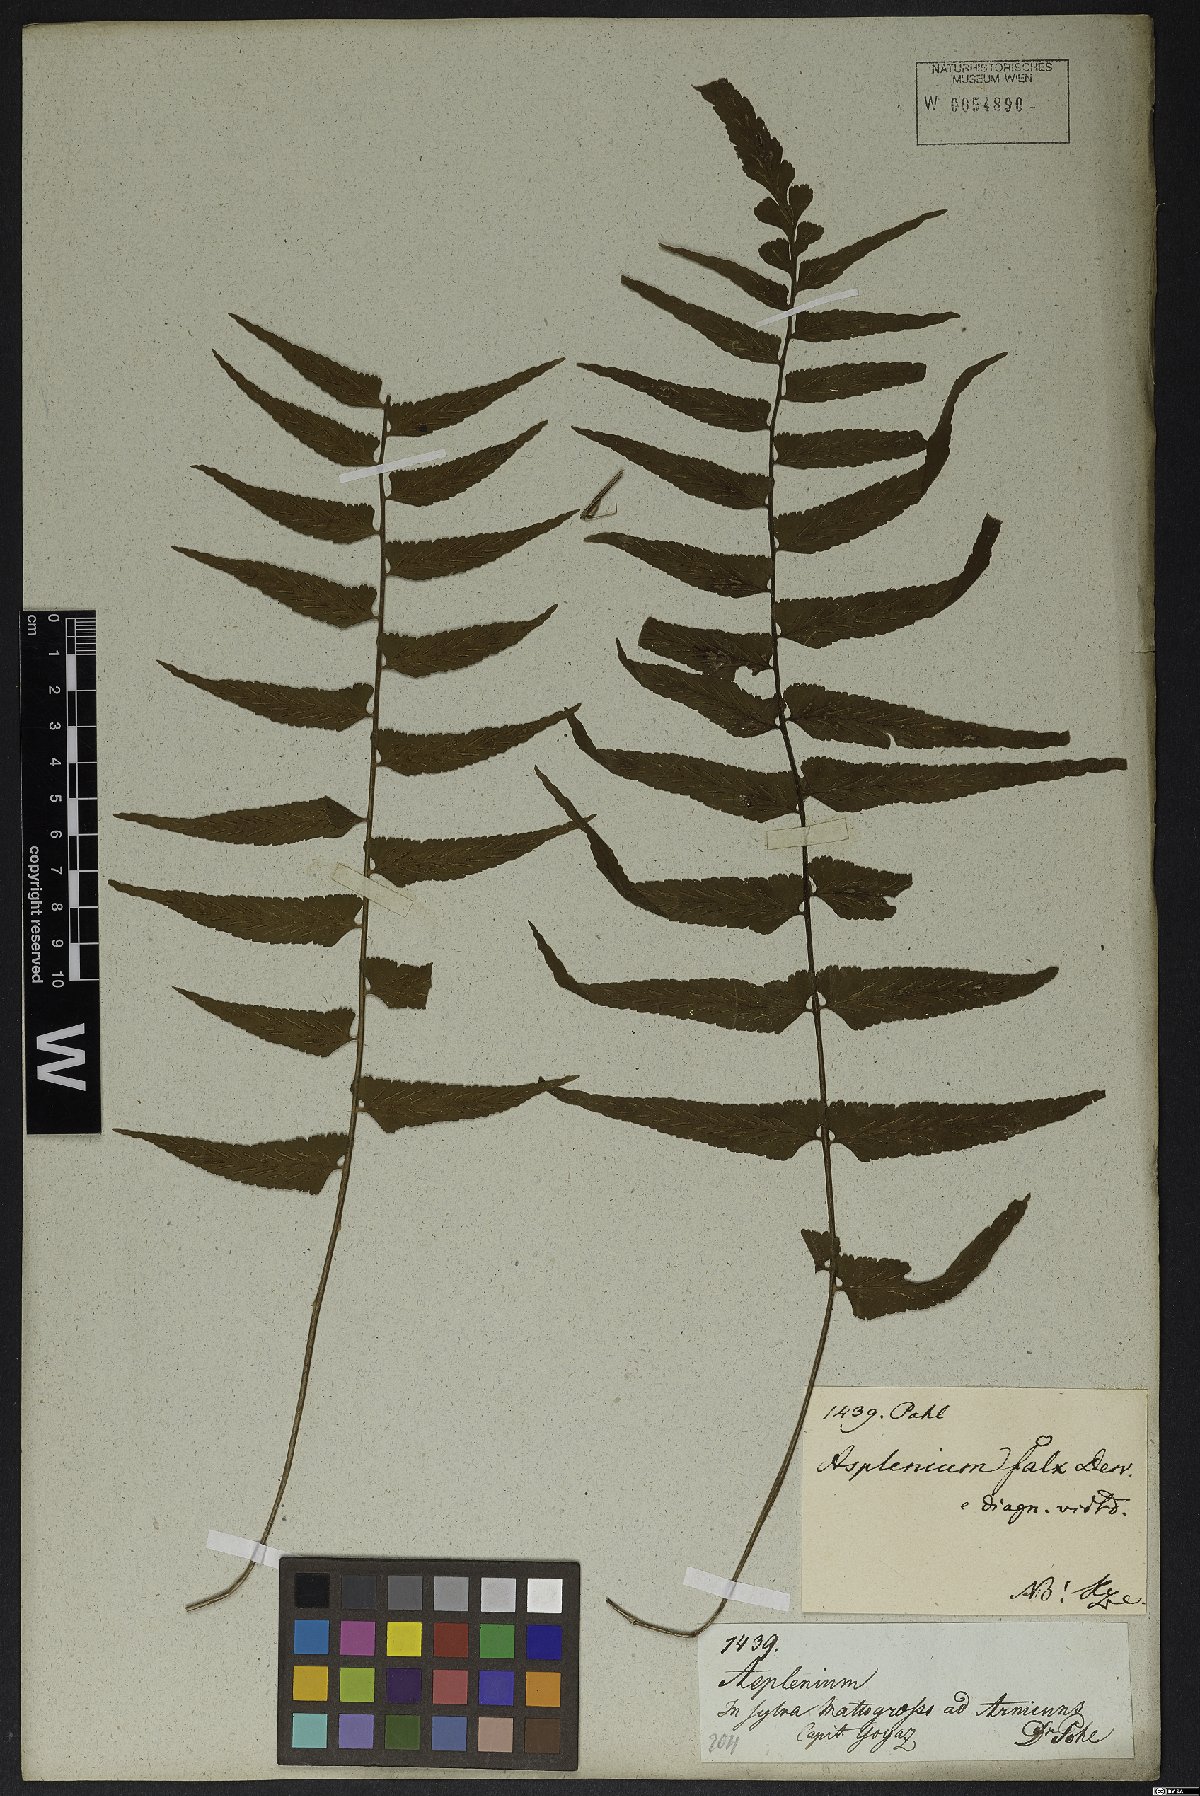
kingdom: Plantae
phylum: Tracheophyta
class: Polypodiopsida
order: Polypodiales
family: Aspleniaceae
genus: Asplenium
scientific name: Asplenium auriculatum
